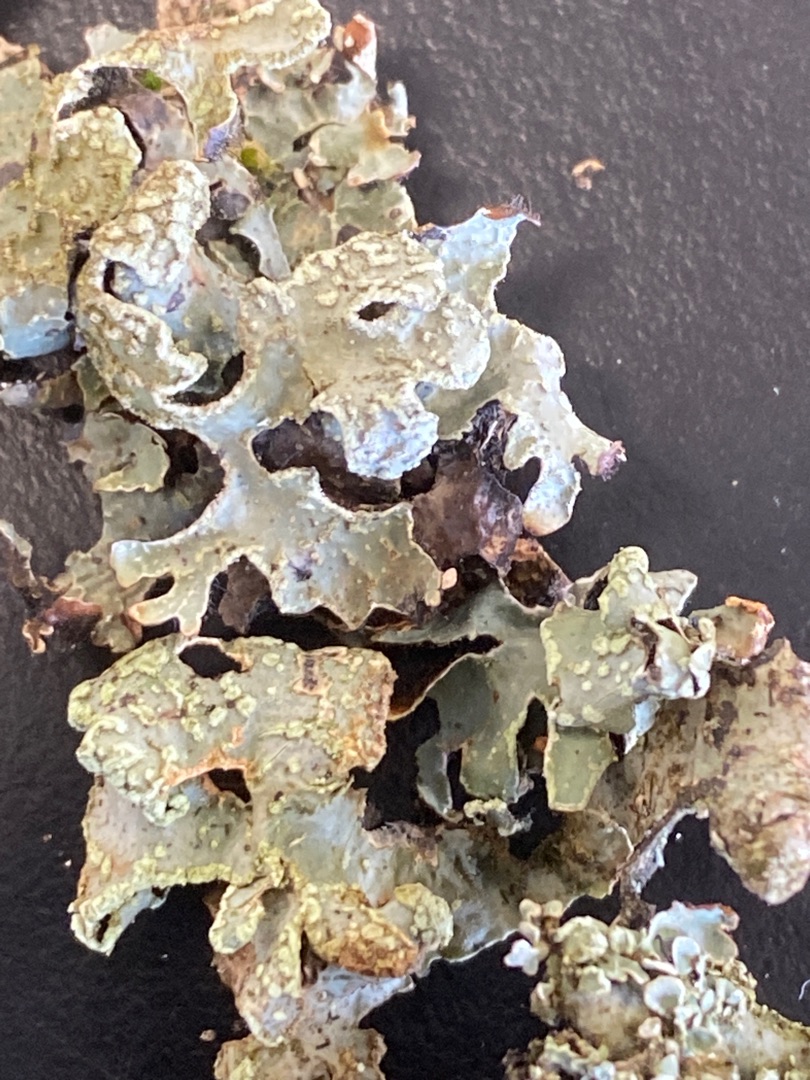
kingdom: Fungi
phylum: Ascomycota
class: Lecanoromycetes
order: Lecanorales
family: Parmeliaceae
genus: Parmelia
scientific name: Parmelia sulcata
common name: Rynket skållav
